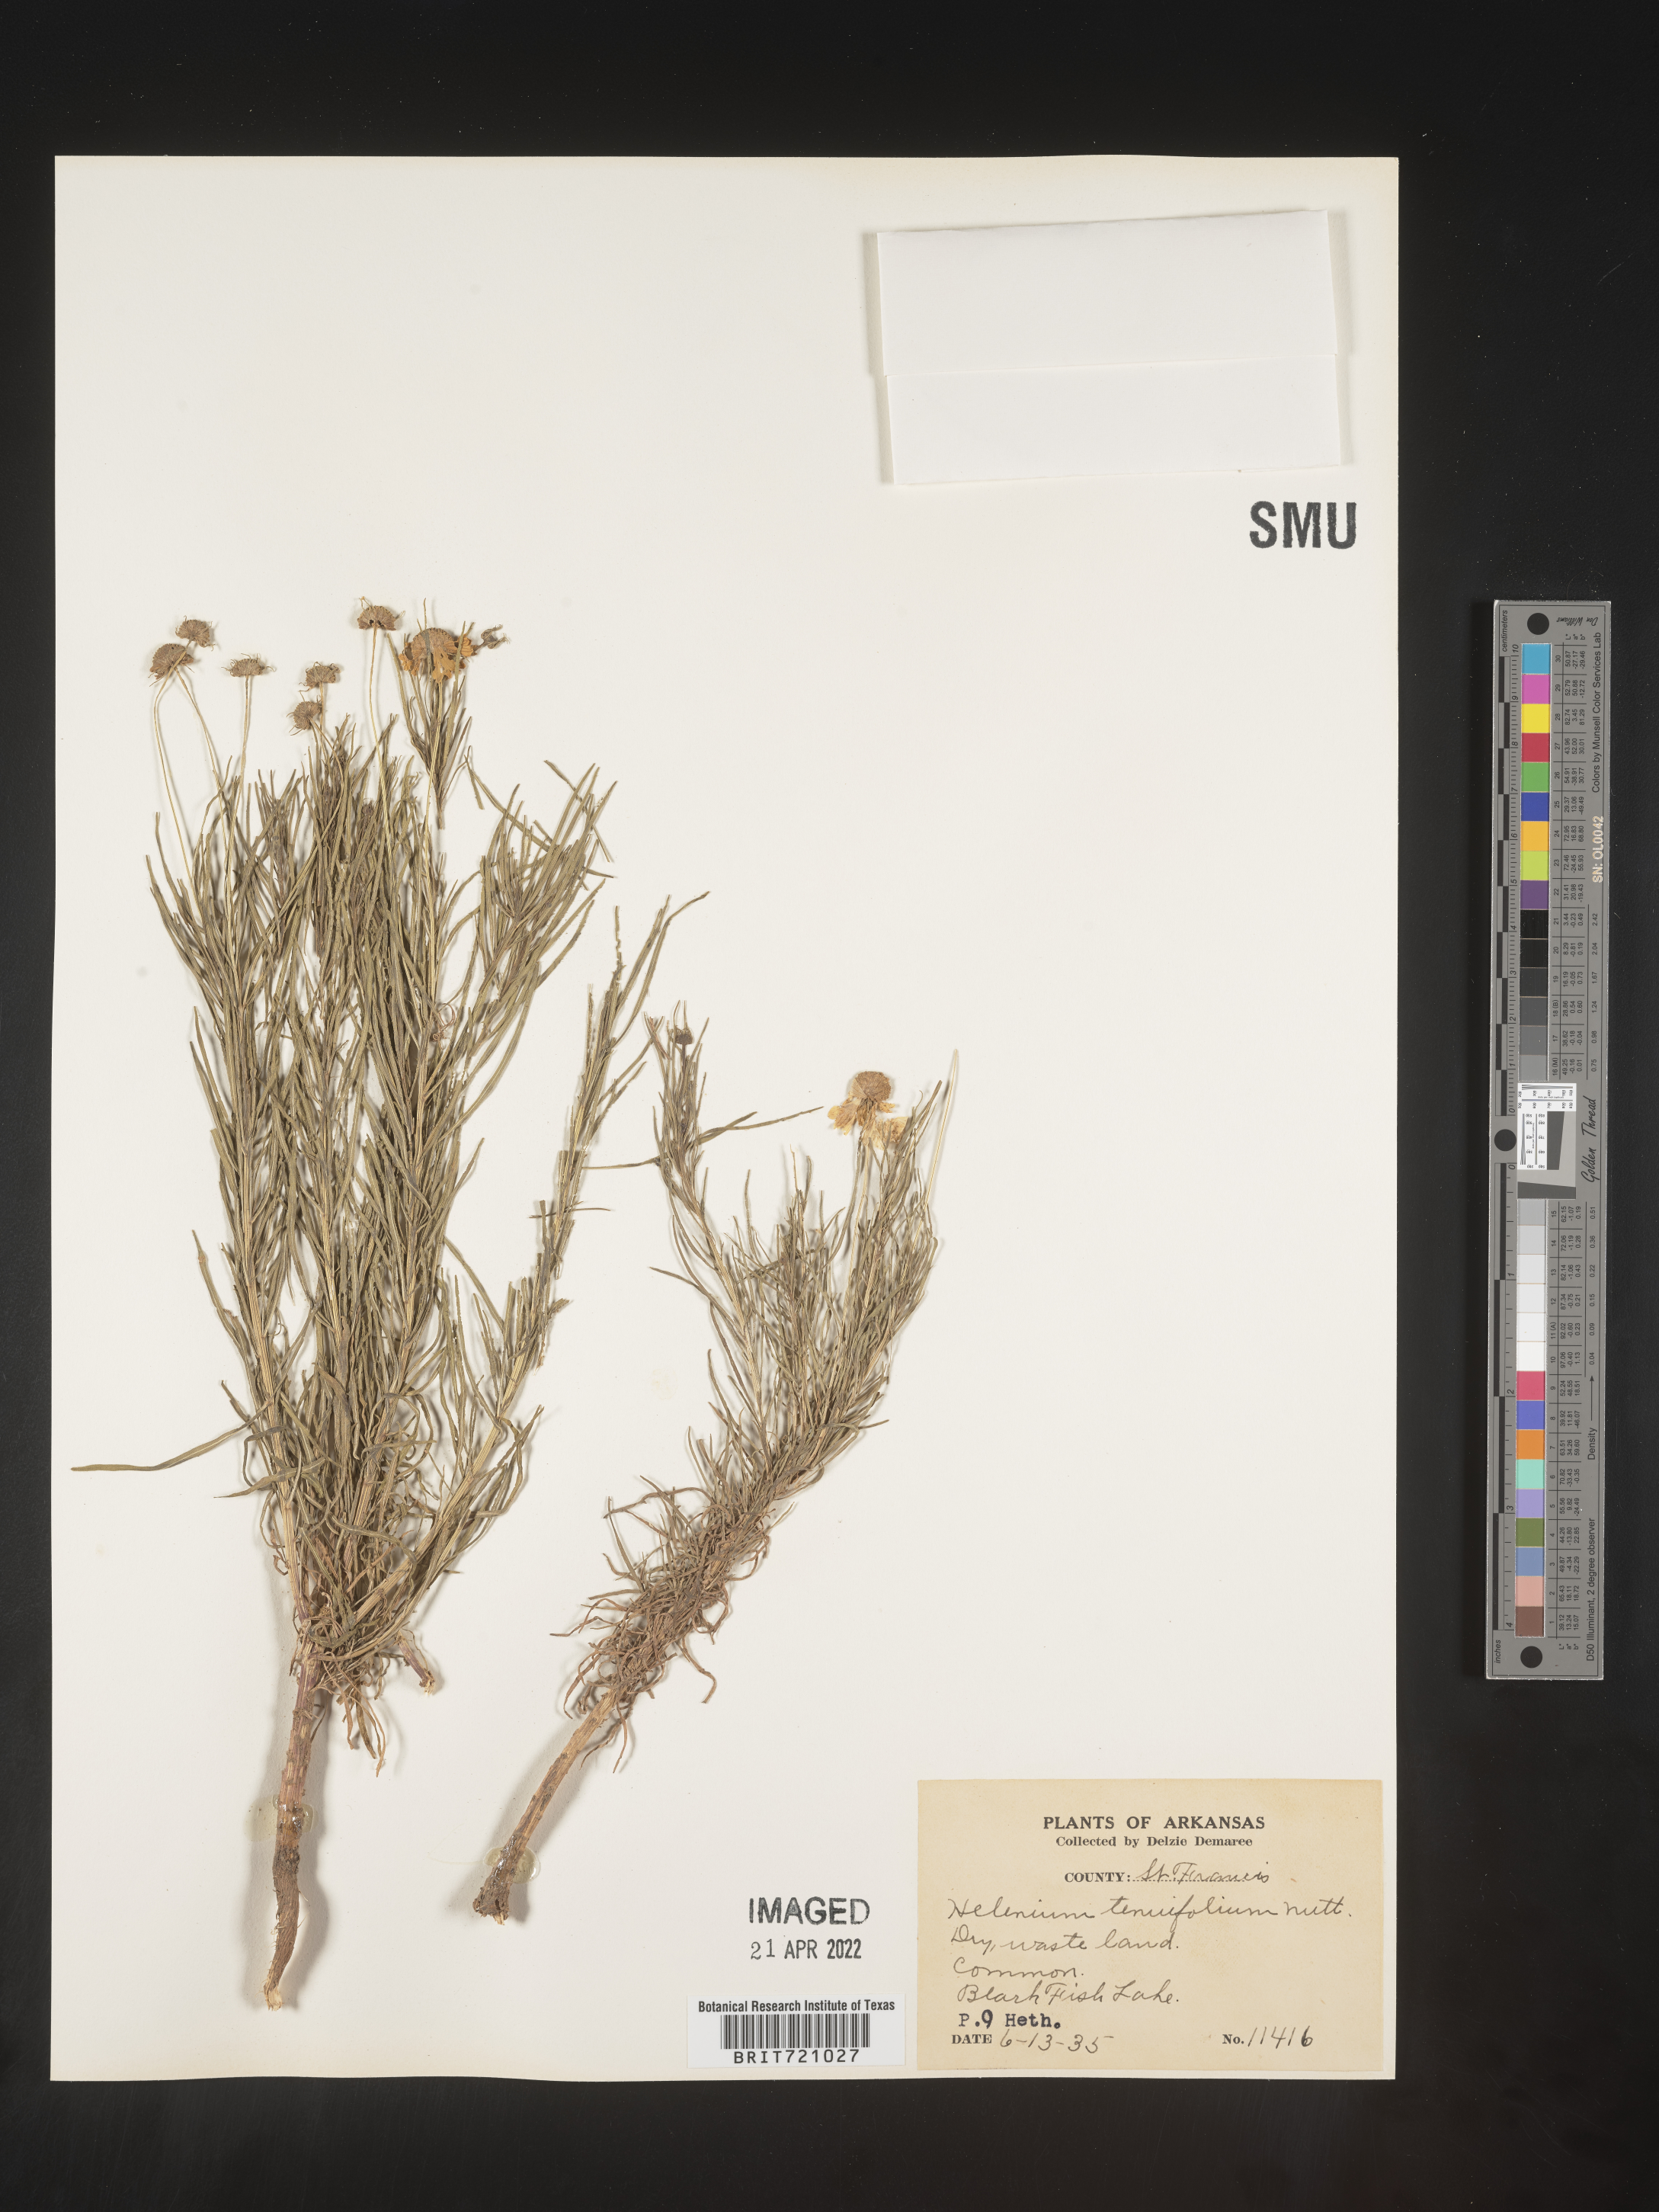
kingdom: Plantae
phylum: Tracheophyta
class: Magnoliopsida
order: Asterales
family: Asteraceae
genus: Helenium
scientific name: Helenium amarum
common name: Bitter sneezeweed
